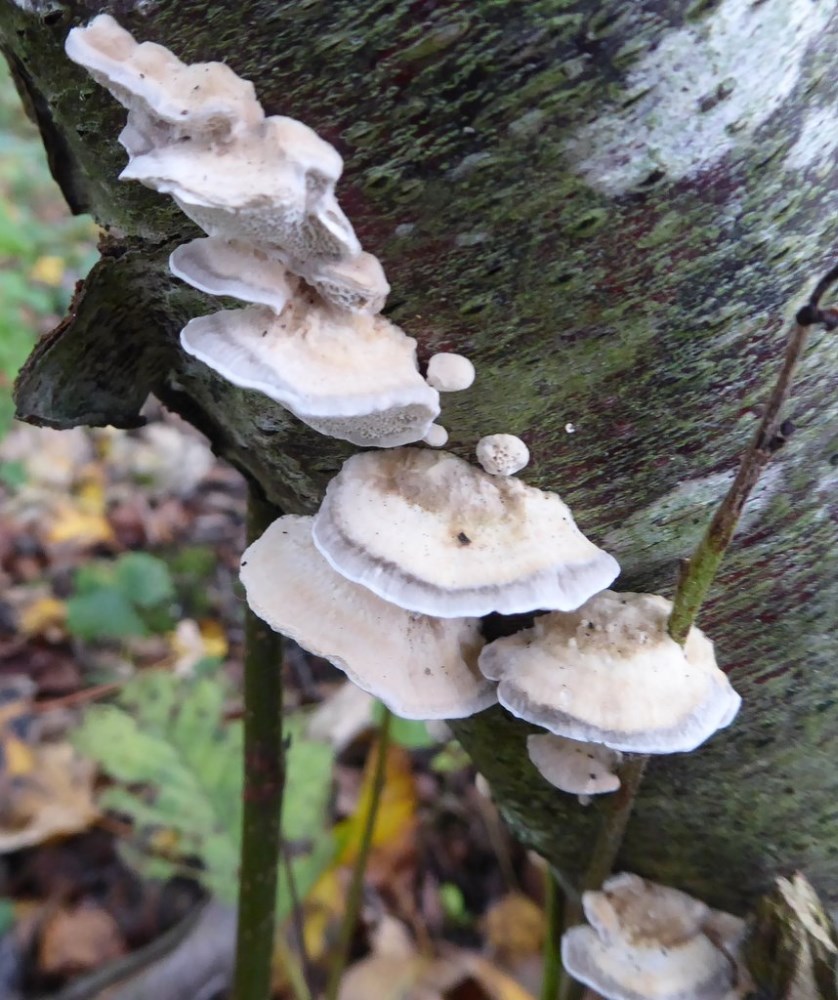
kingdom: Fungi
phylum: Basidiomycota
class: Agaricomycetes
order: Polyporales
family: Polyporaceae
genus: Cyanosporus
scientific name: Cyanosporus alni
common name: blegblå kødporesvamp
